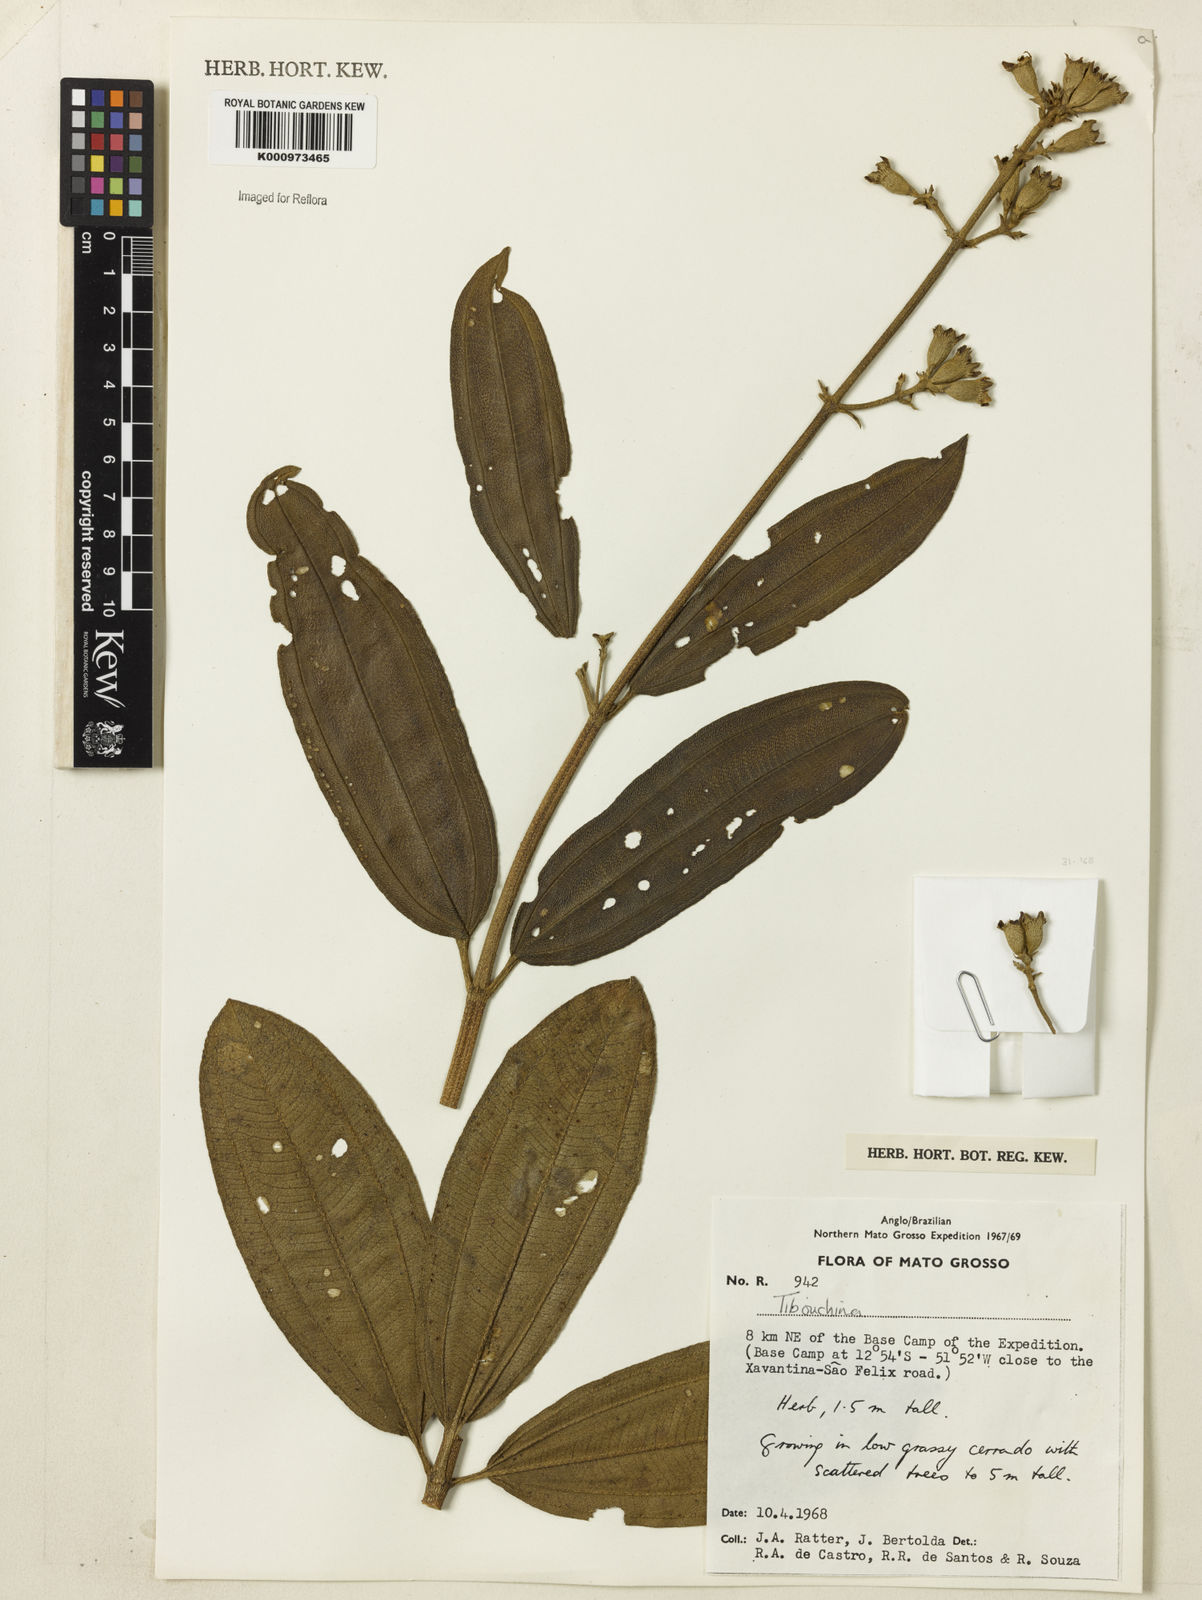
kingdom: Plantae
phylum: Tracheophyta
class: Magnoliopsida
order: Myrtales
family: Melastomataceae
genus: Tibouchina
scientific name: Tibouchina
